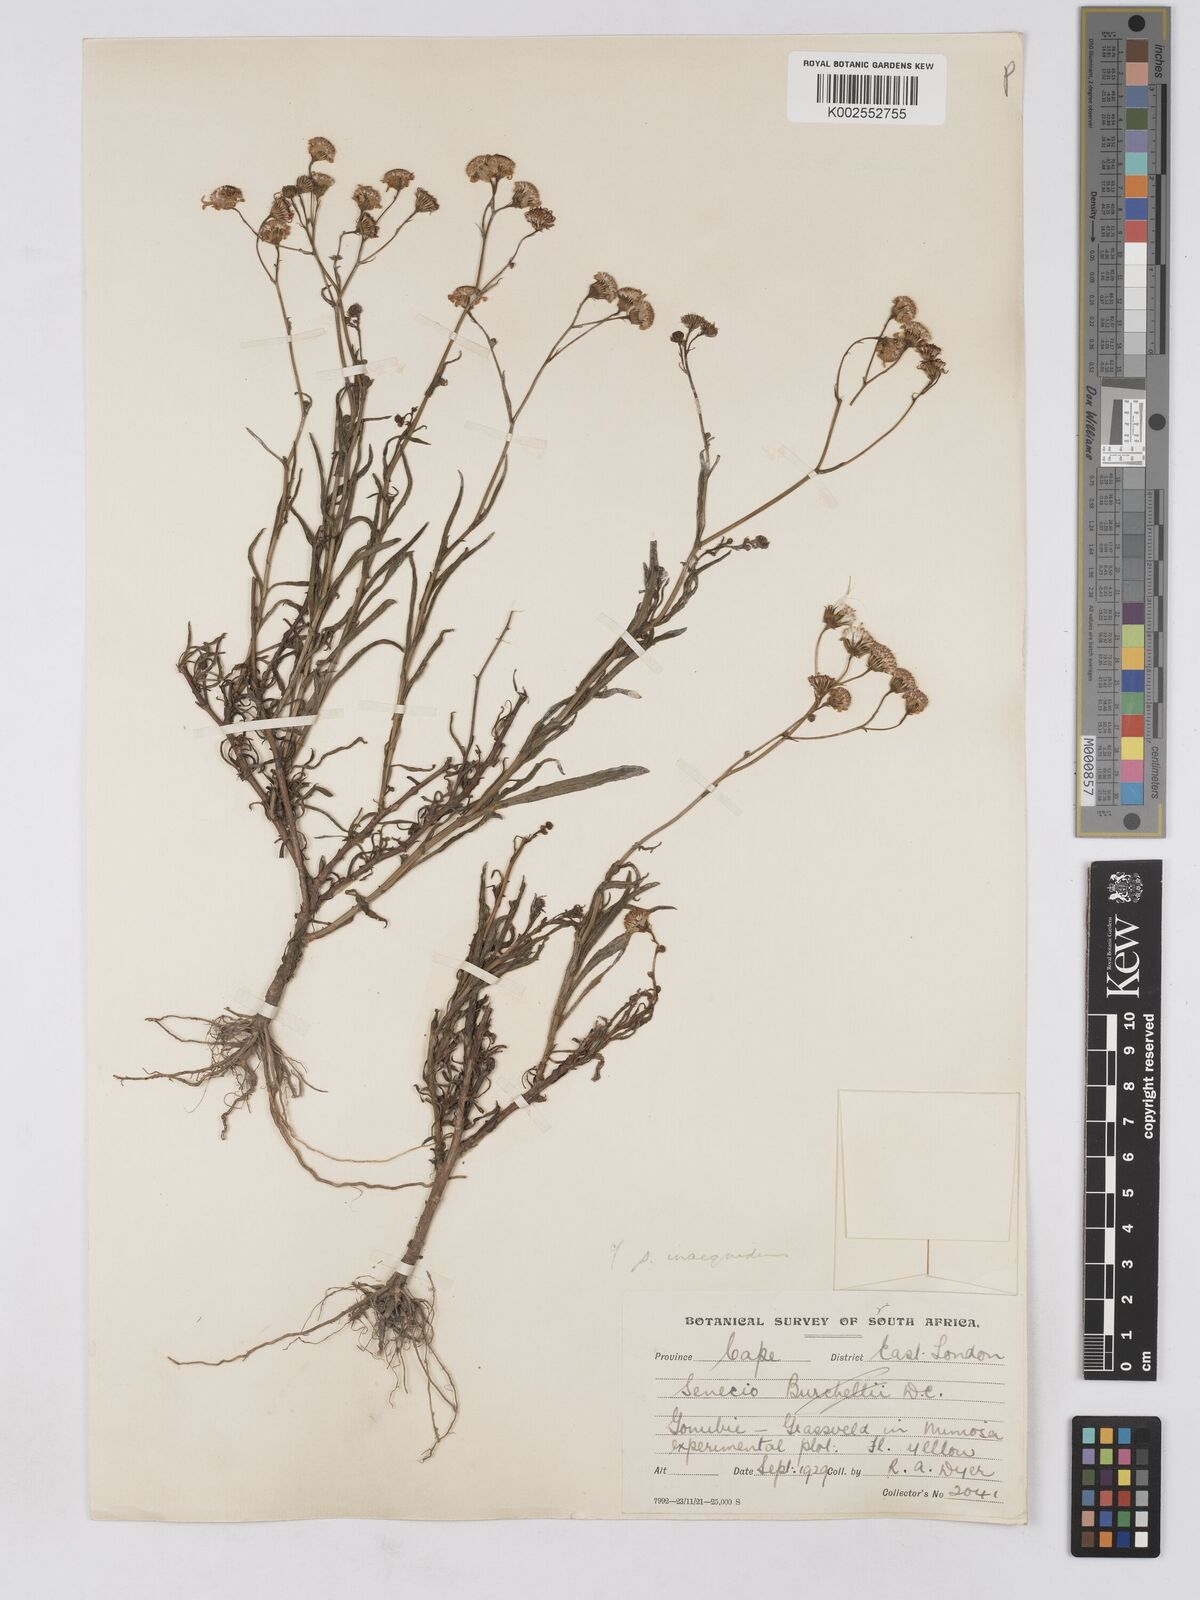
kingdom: Plantae
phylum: Tracheophyta
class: Magnoliopsida
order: Asterales
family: Asteraceae
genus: Senecio
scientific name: Senecio madagascariensis
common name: Madagascar ragwort
